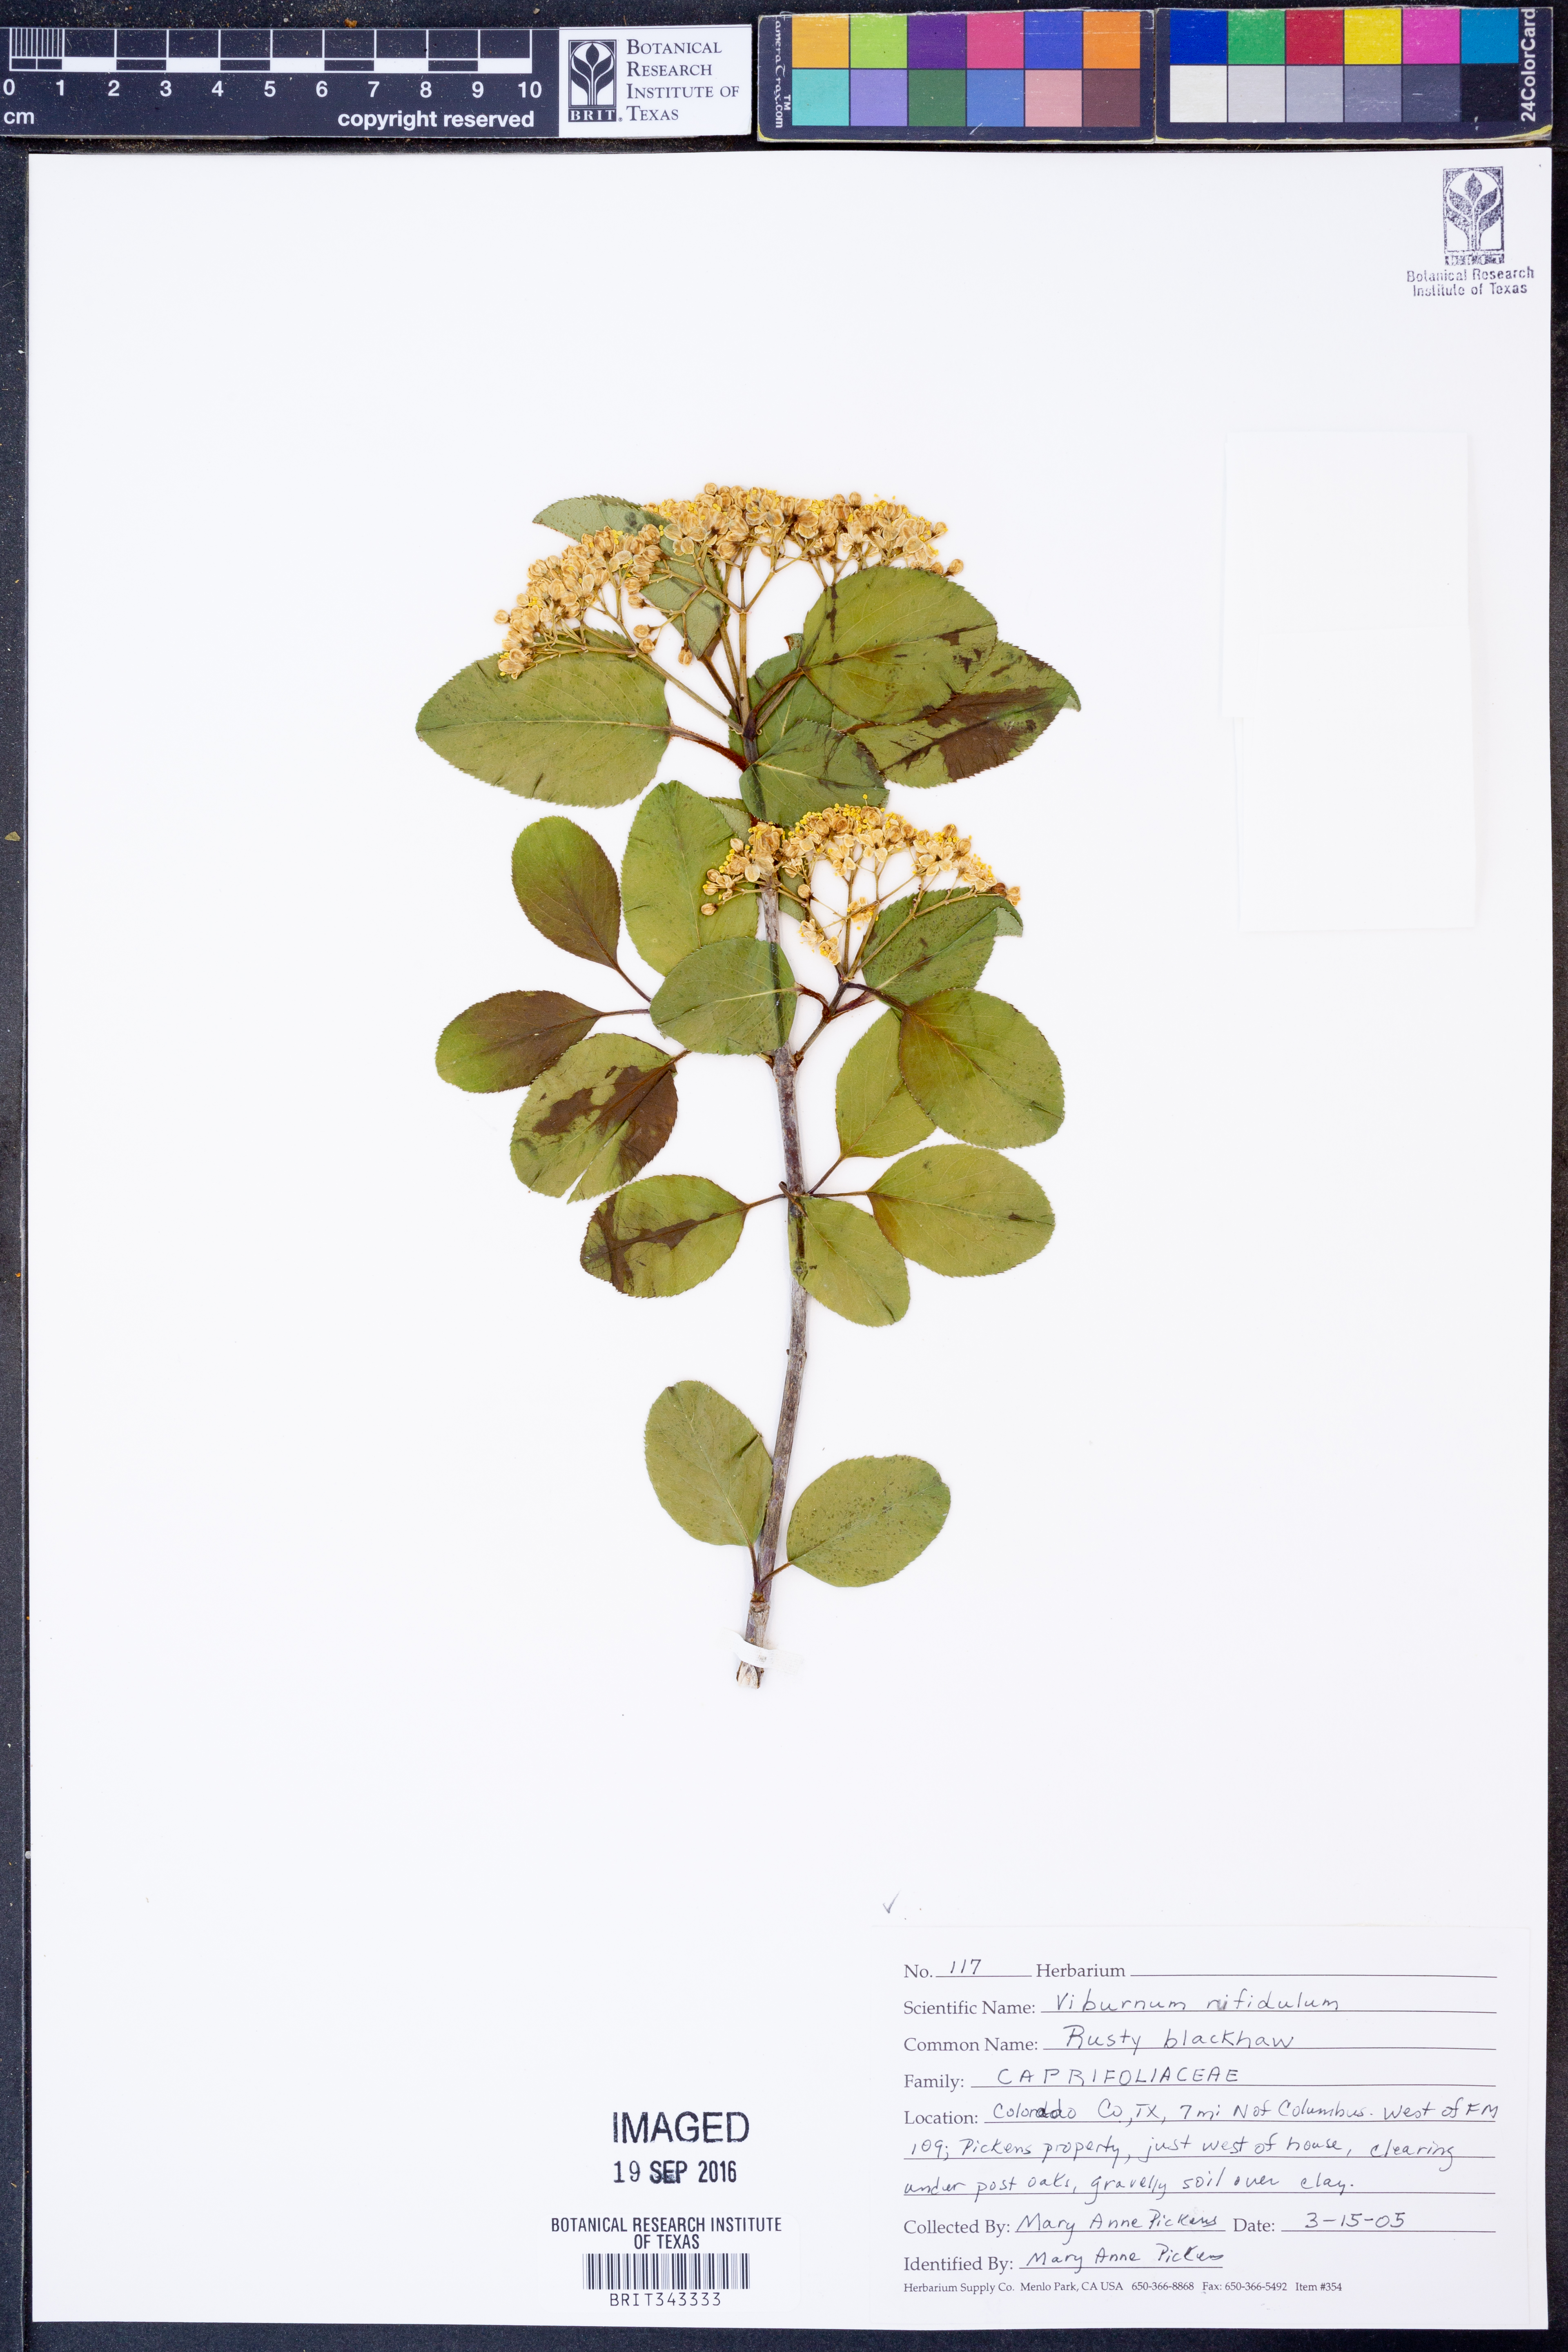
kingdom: Plantae
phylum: Tracheophyta
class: Magnoliopsida
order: Dipsacales
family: Viburnaceae
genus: Viburnum
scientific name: Viburnum rufidulum
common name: Blue haw
